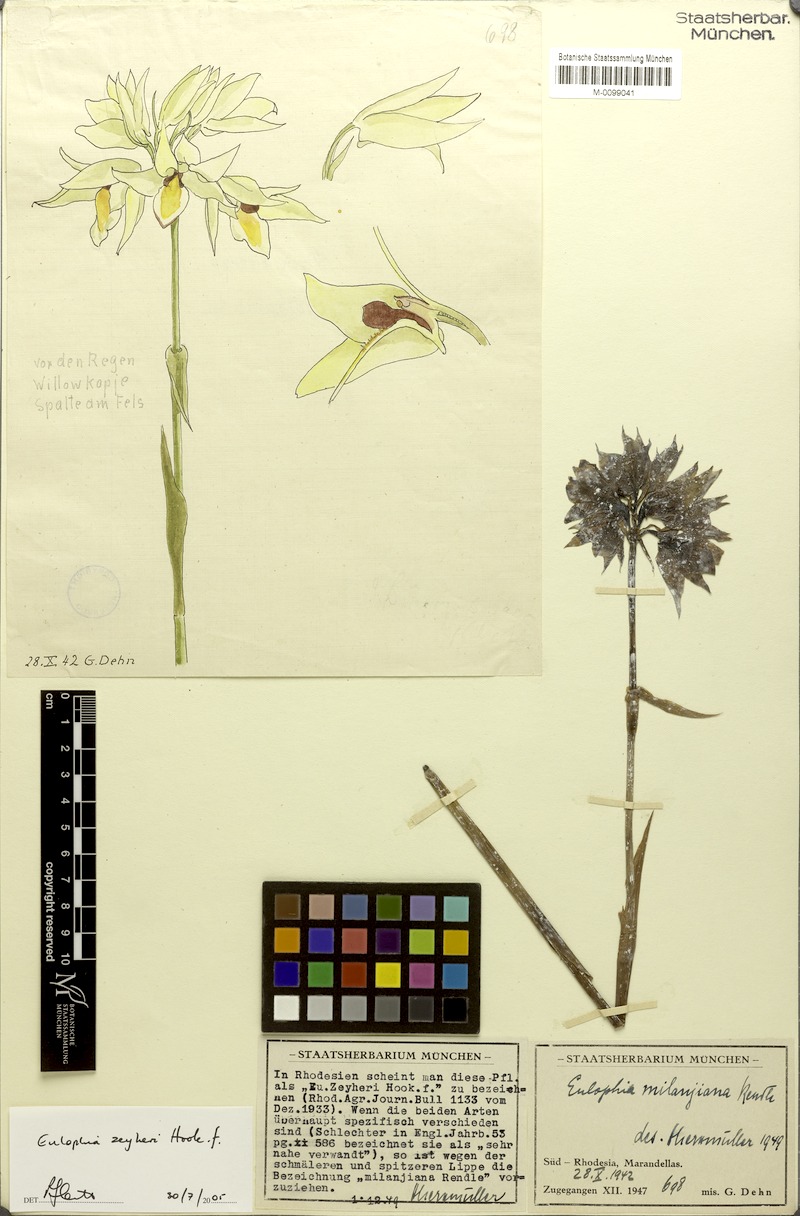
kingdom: Plantae
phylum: Tracheophyta
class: Liliopsida
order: Asparagales
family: Orchidaceae
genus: Eulophia
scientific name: Eulophia mechowii
